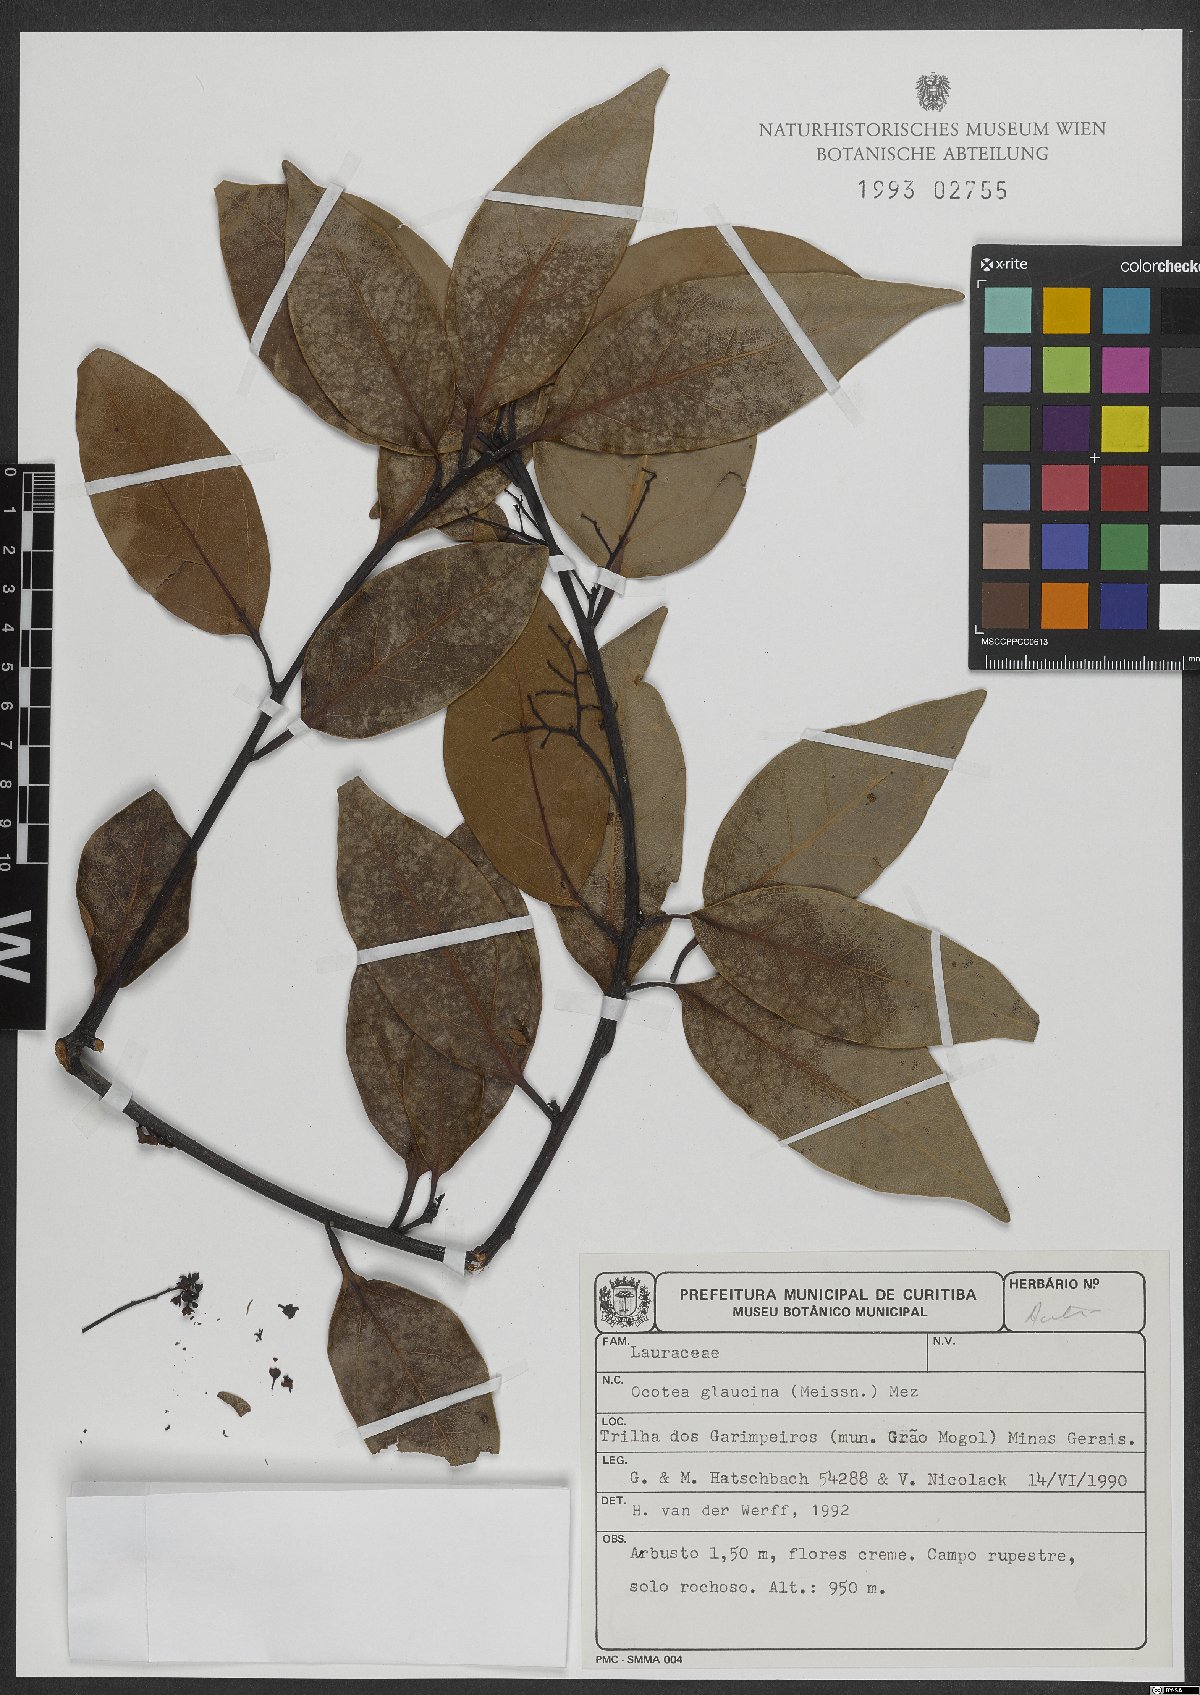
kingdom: Plantae
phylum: Tracheophyta
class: Magnoliopsida
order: Laurales
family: Lauraceae
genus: Mespilodaphne
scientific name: Mespilodaphne notata
